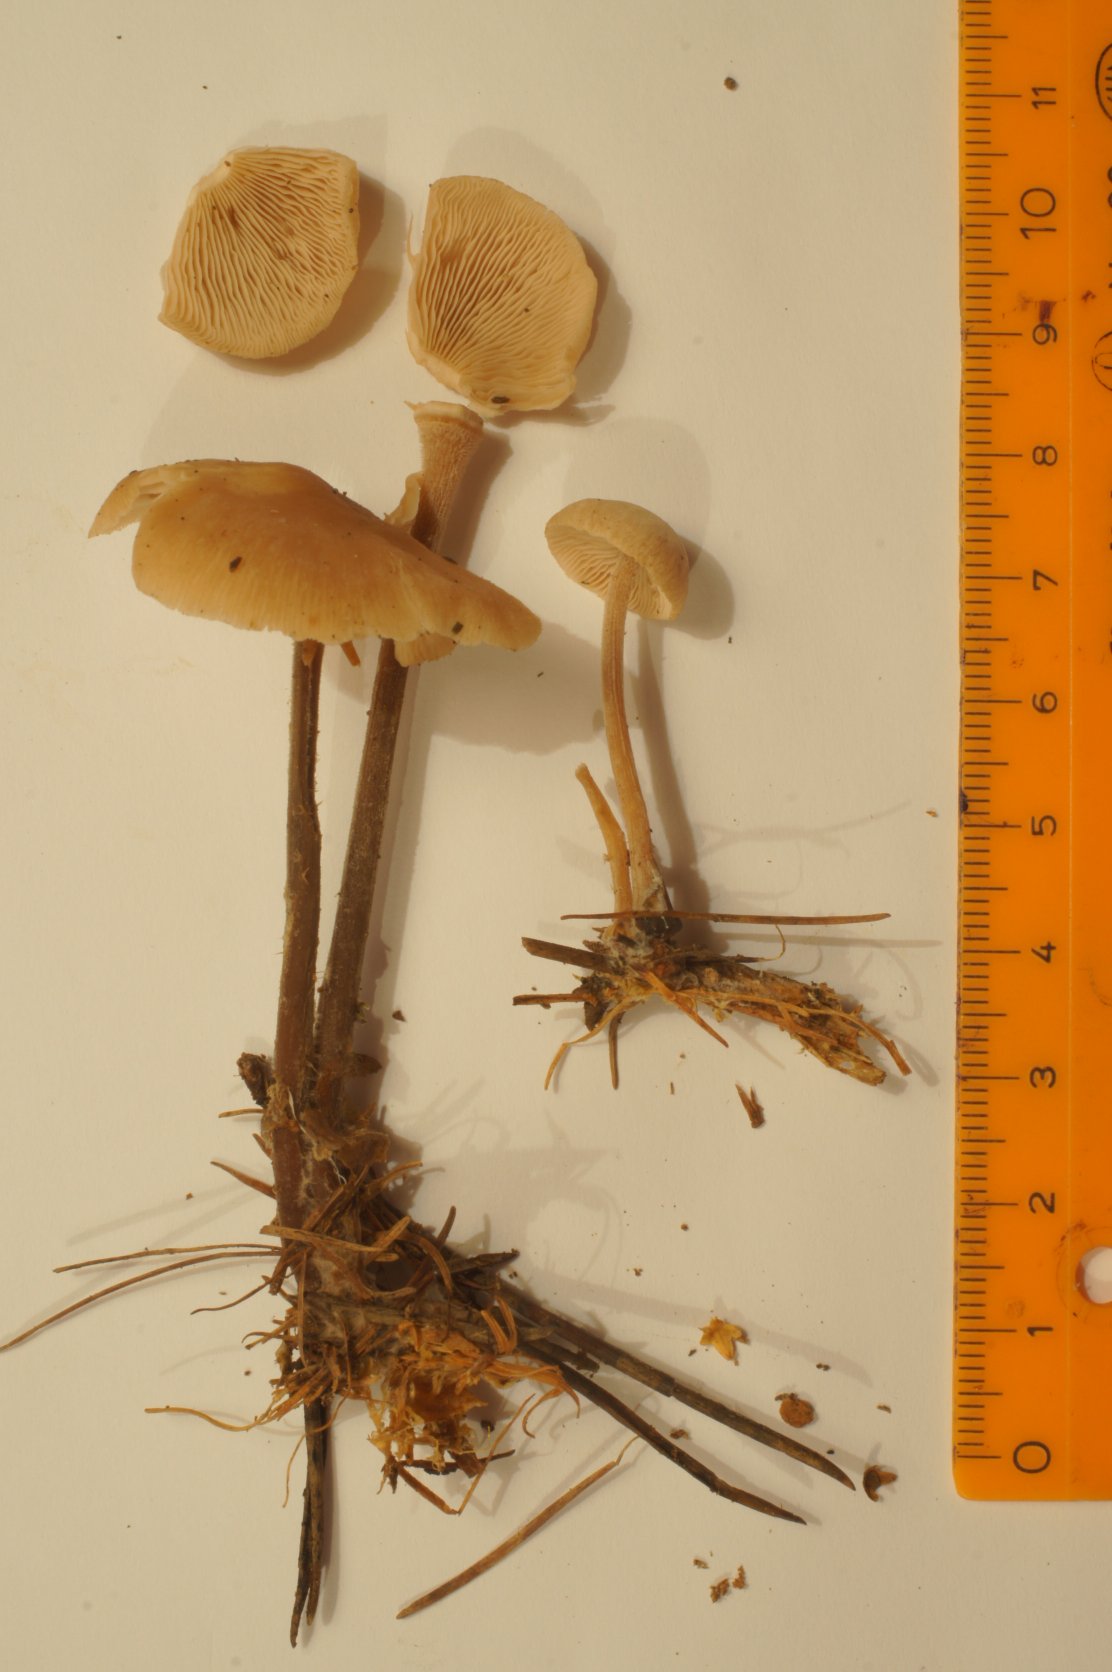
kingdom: Fungi
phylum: Basidiomycota
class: Agaricomycetes
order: Agaricales
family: Omphalotaceae
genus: Collybiopsis
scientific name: Collybiopsis confluens
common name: knippe-fladhat
